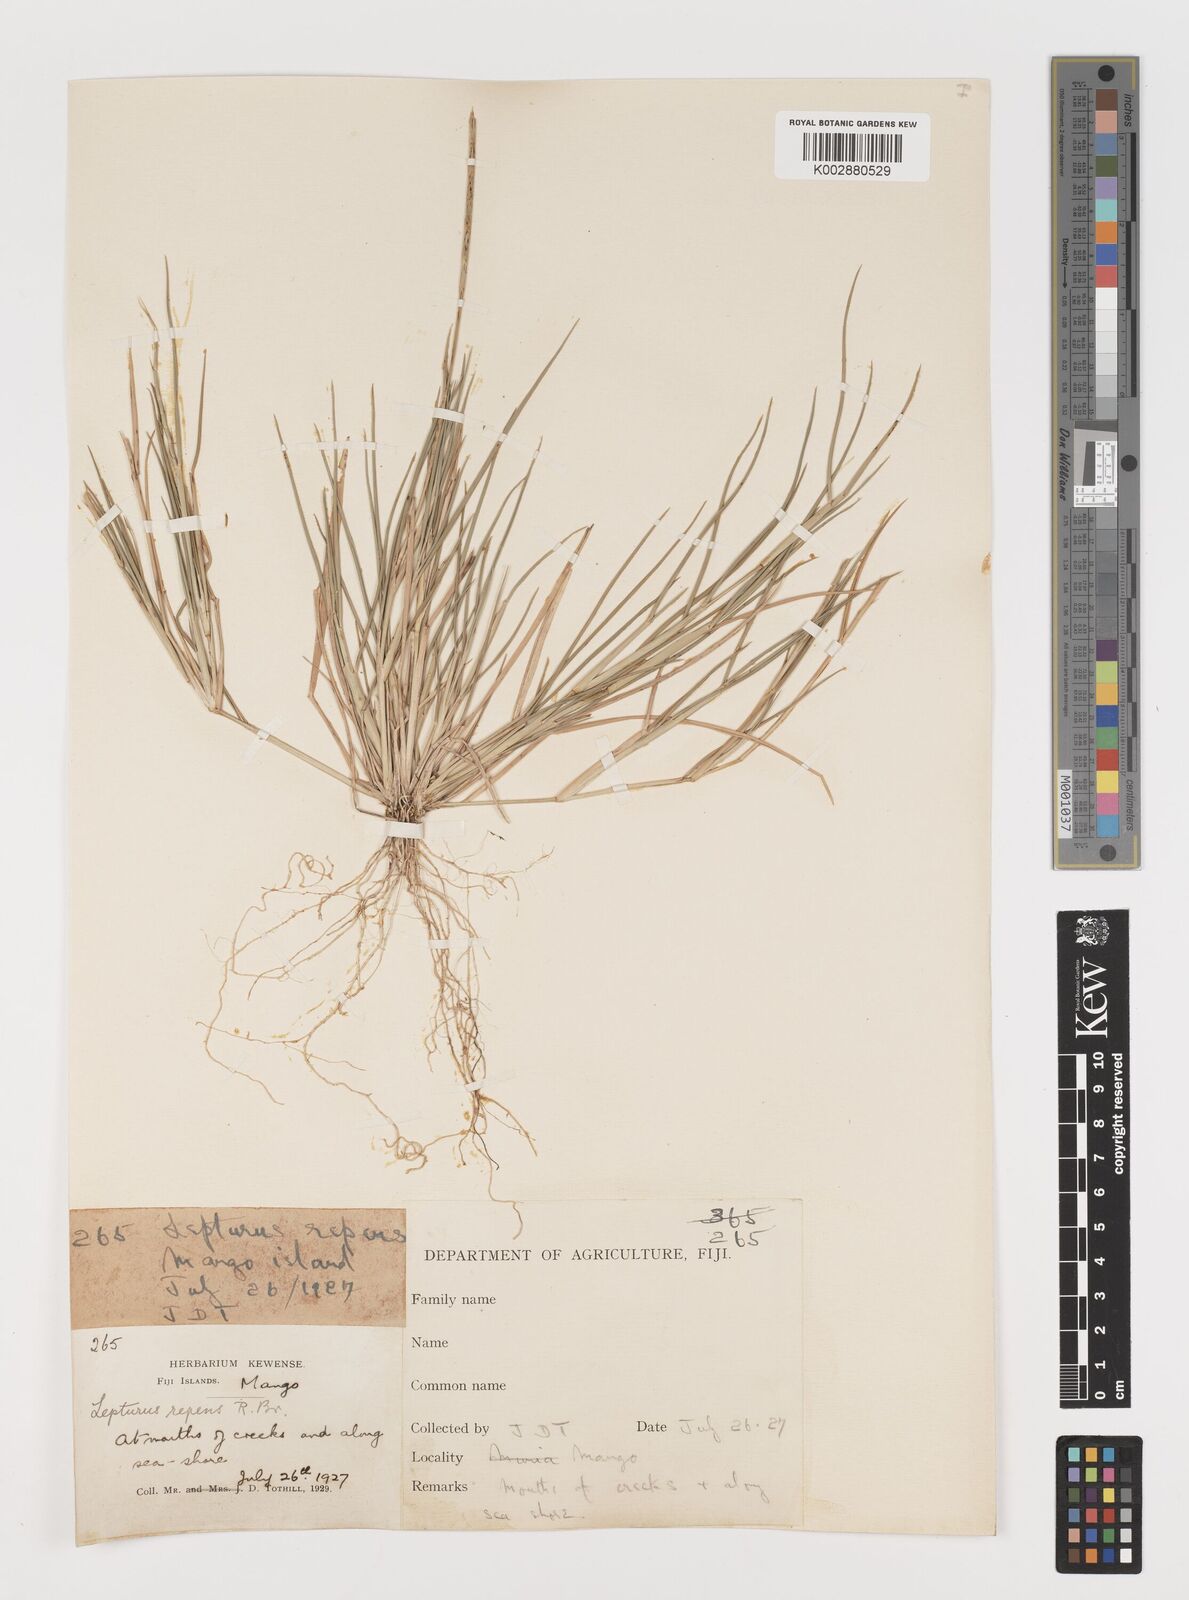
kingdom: Plantae
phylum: Tracheophyta
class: Liliopsida
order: Poales
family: Poaceae
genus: Lepturus
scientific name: Lepturus repens
